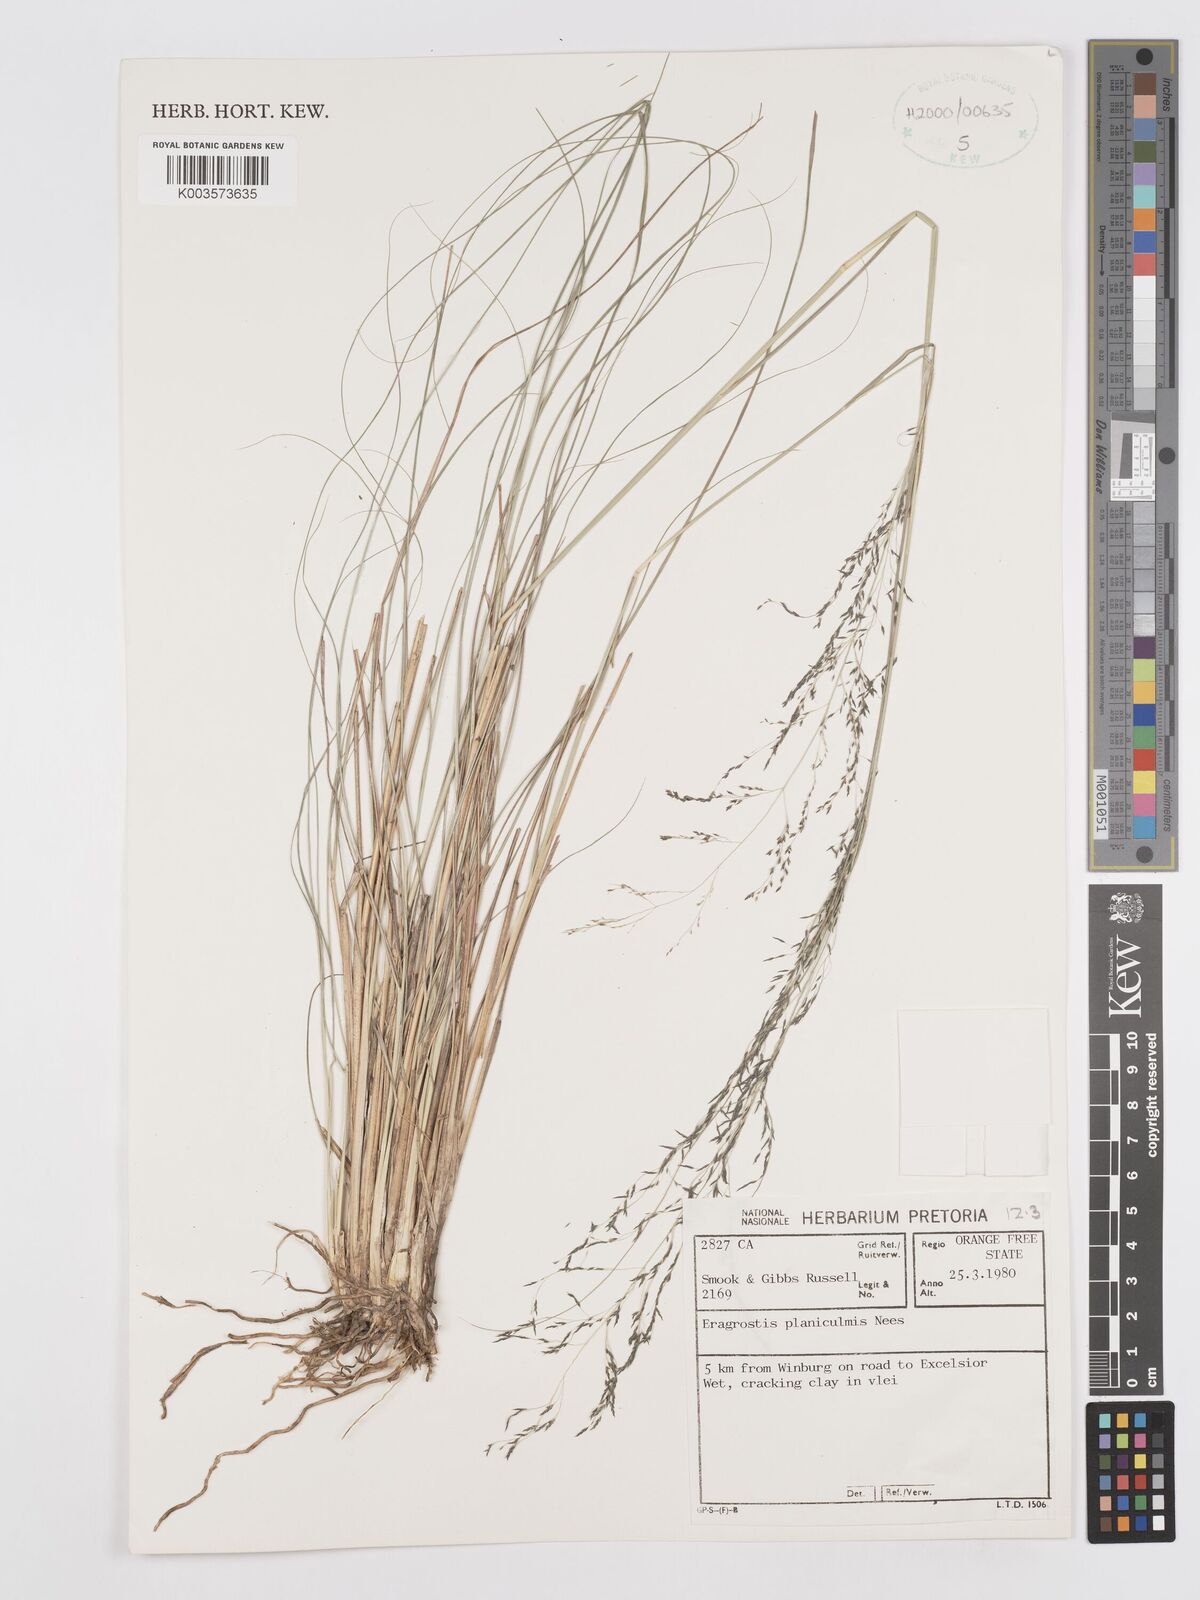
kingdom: Plantae
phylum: Tracheophyta
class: Liliopsida
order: Poales
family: Poaceae
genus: Eragrostis
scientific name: Eragrostis planiculmis
